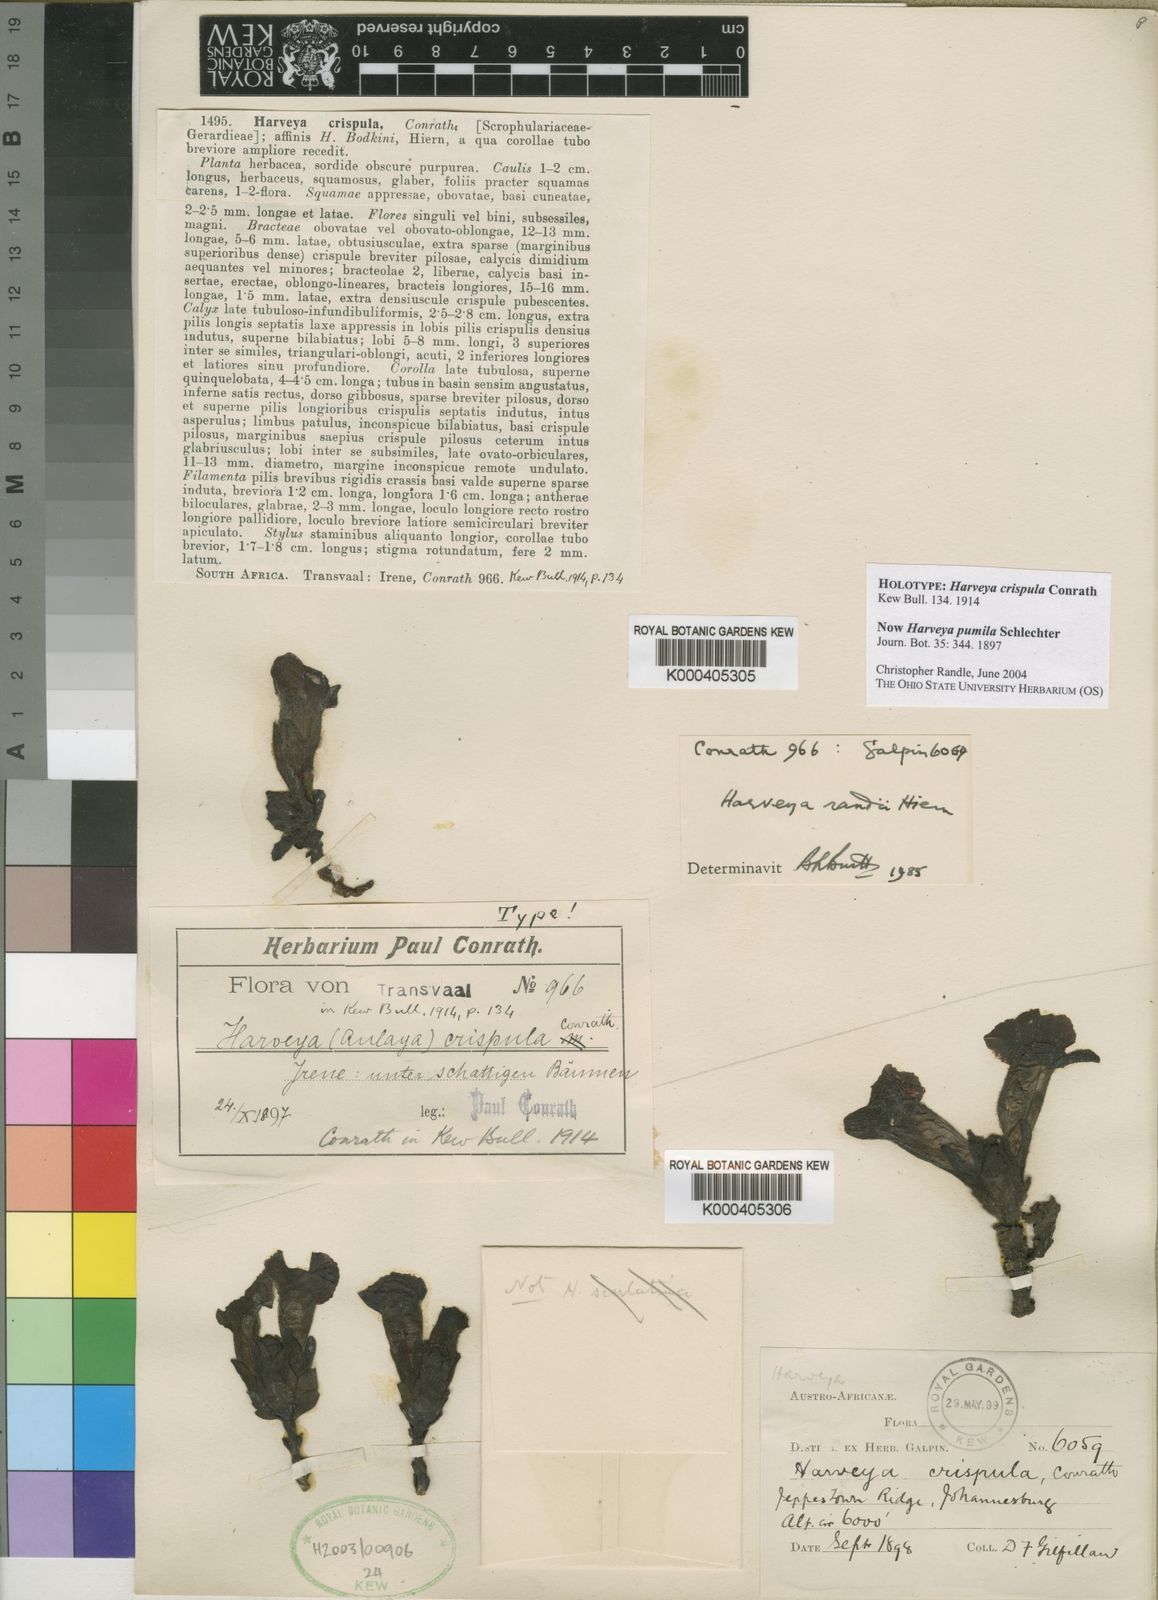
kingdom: Plantae
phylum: Tracheophyta
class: Magnoliopsida
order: Lamiales
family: Orobanchaceae
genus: Harveya
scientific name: Harveya pumila
